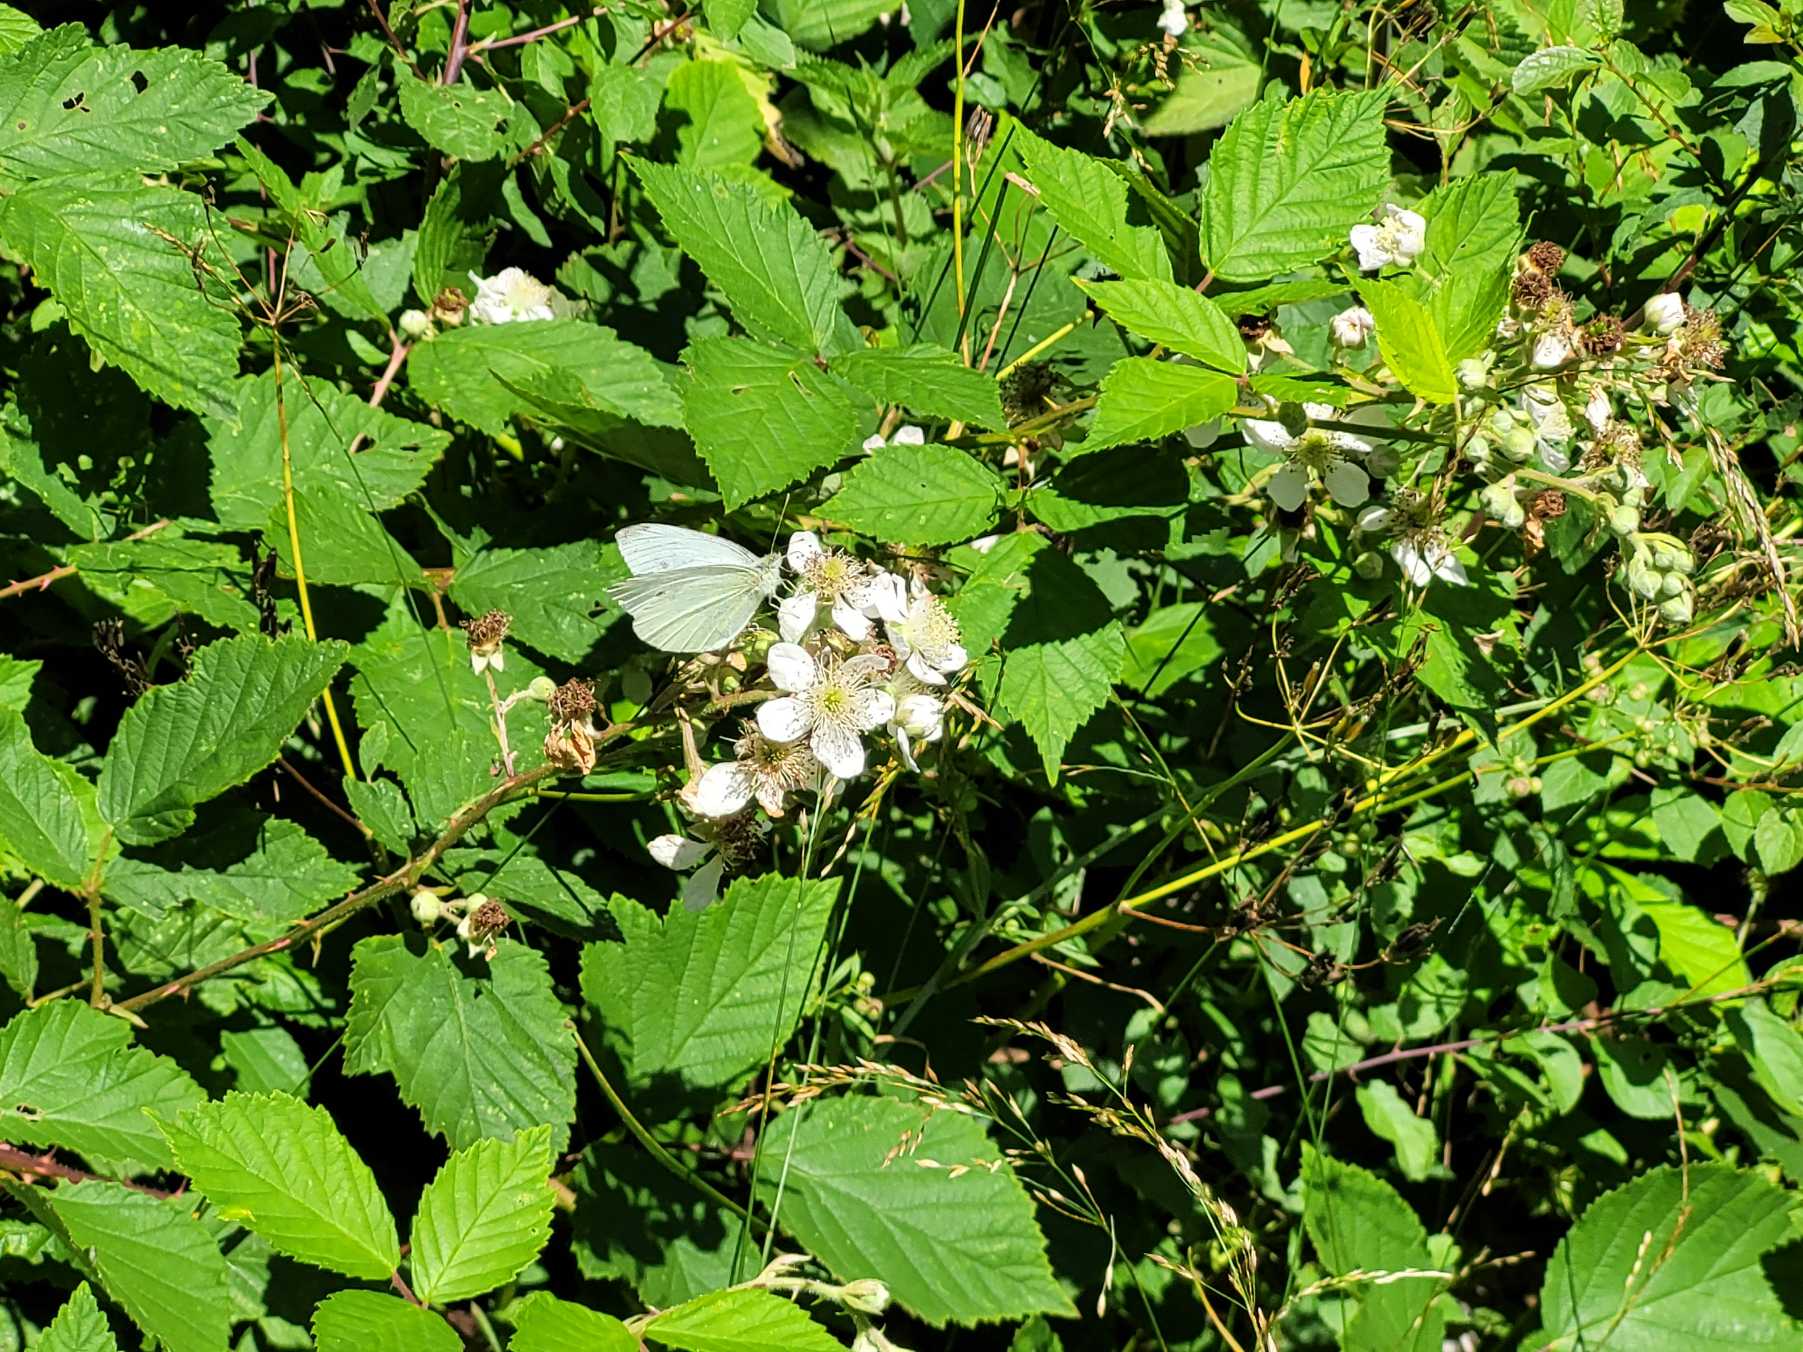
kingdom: Animalia
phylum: Arthropoda
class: Insecta
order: Lepidoptera
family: Pieridae
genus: Pieris
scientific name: Pieris rapae
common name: Lille kålsommerfugl
